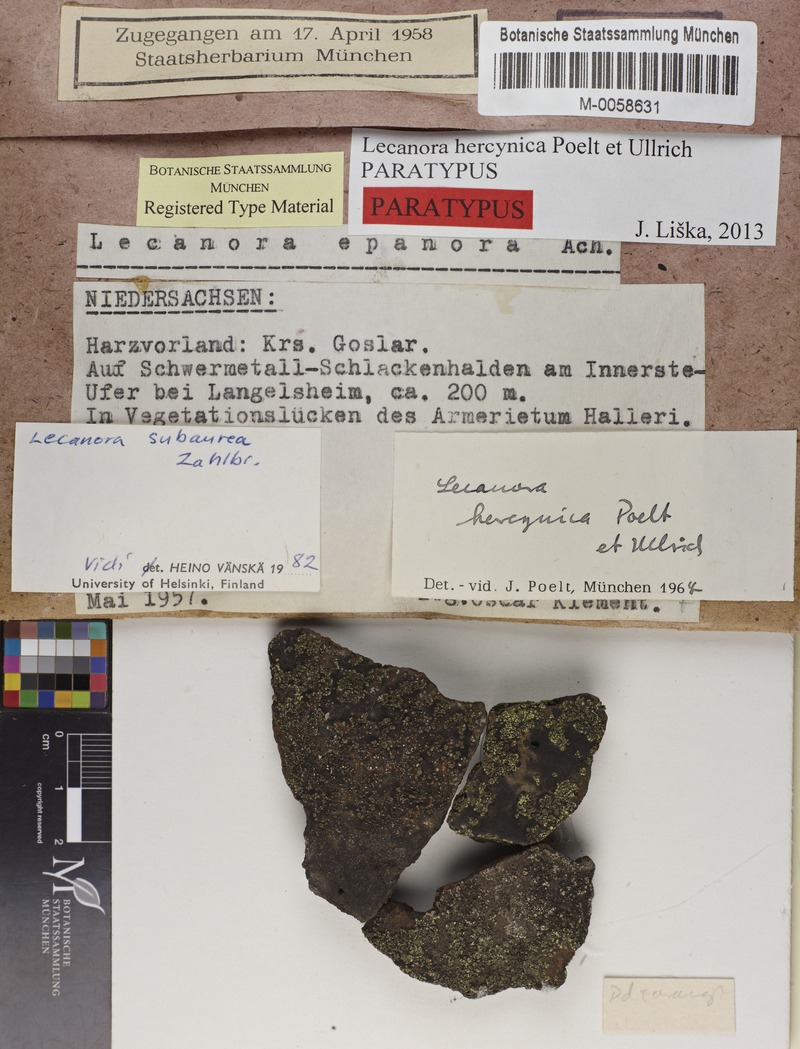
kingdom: Fungi
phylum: Ascomycota
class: Lecanoromycetes
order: Lecanorales
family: Lecanoraceae
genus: Lecanora
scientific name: Lecanora subaurea
